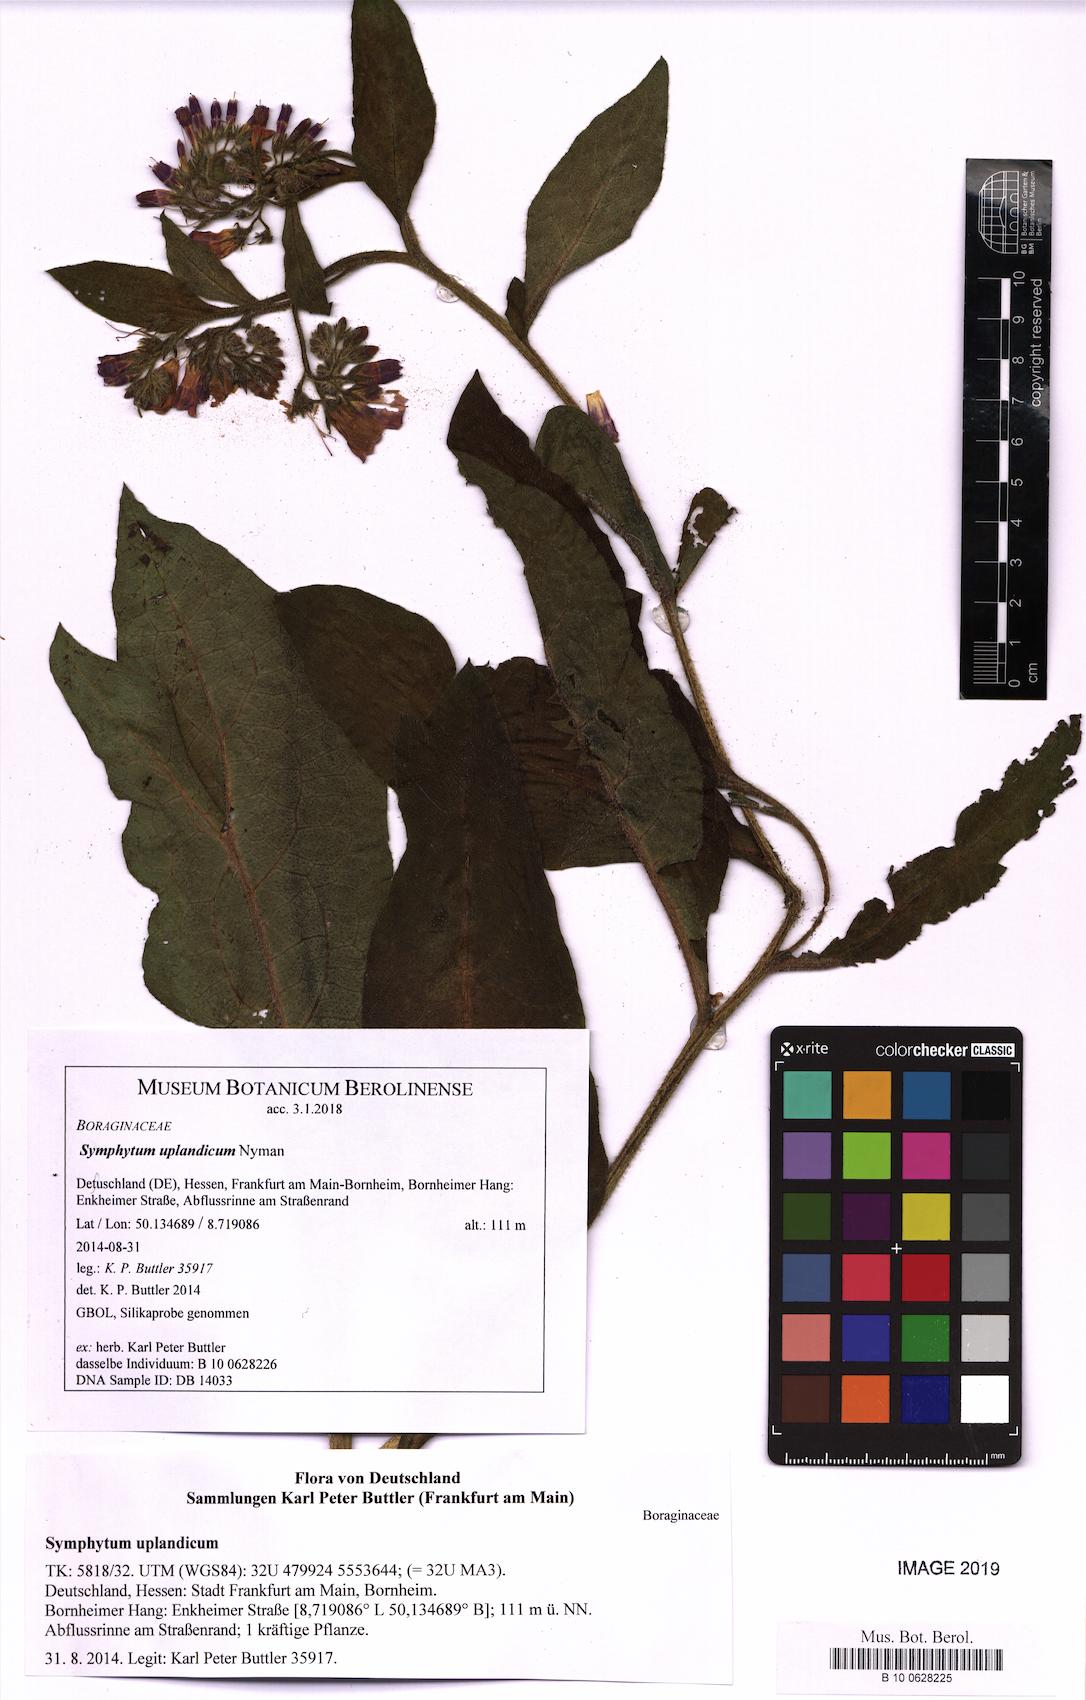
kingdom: Plantae
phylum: Tracheophyta
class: Magnoliopsida
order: Boraginales
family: Boraginaceae
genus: Symphytum
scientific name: Symphytum uplandicum
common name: Russian comfrey
